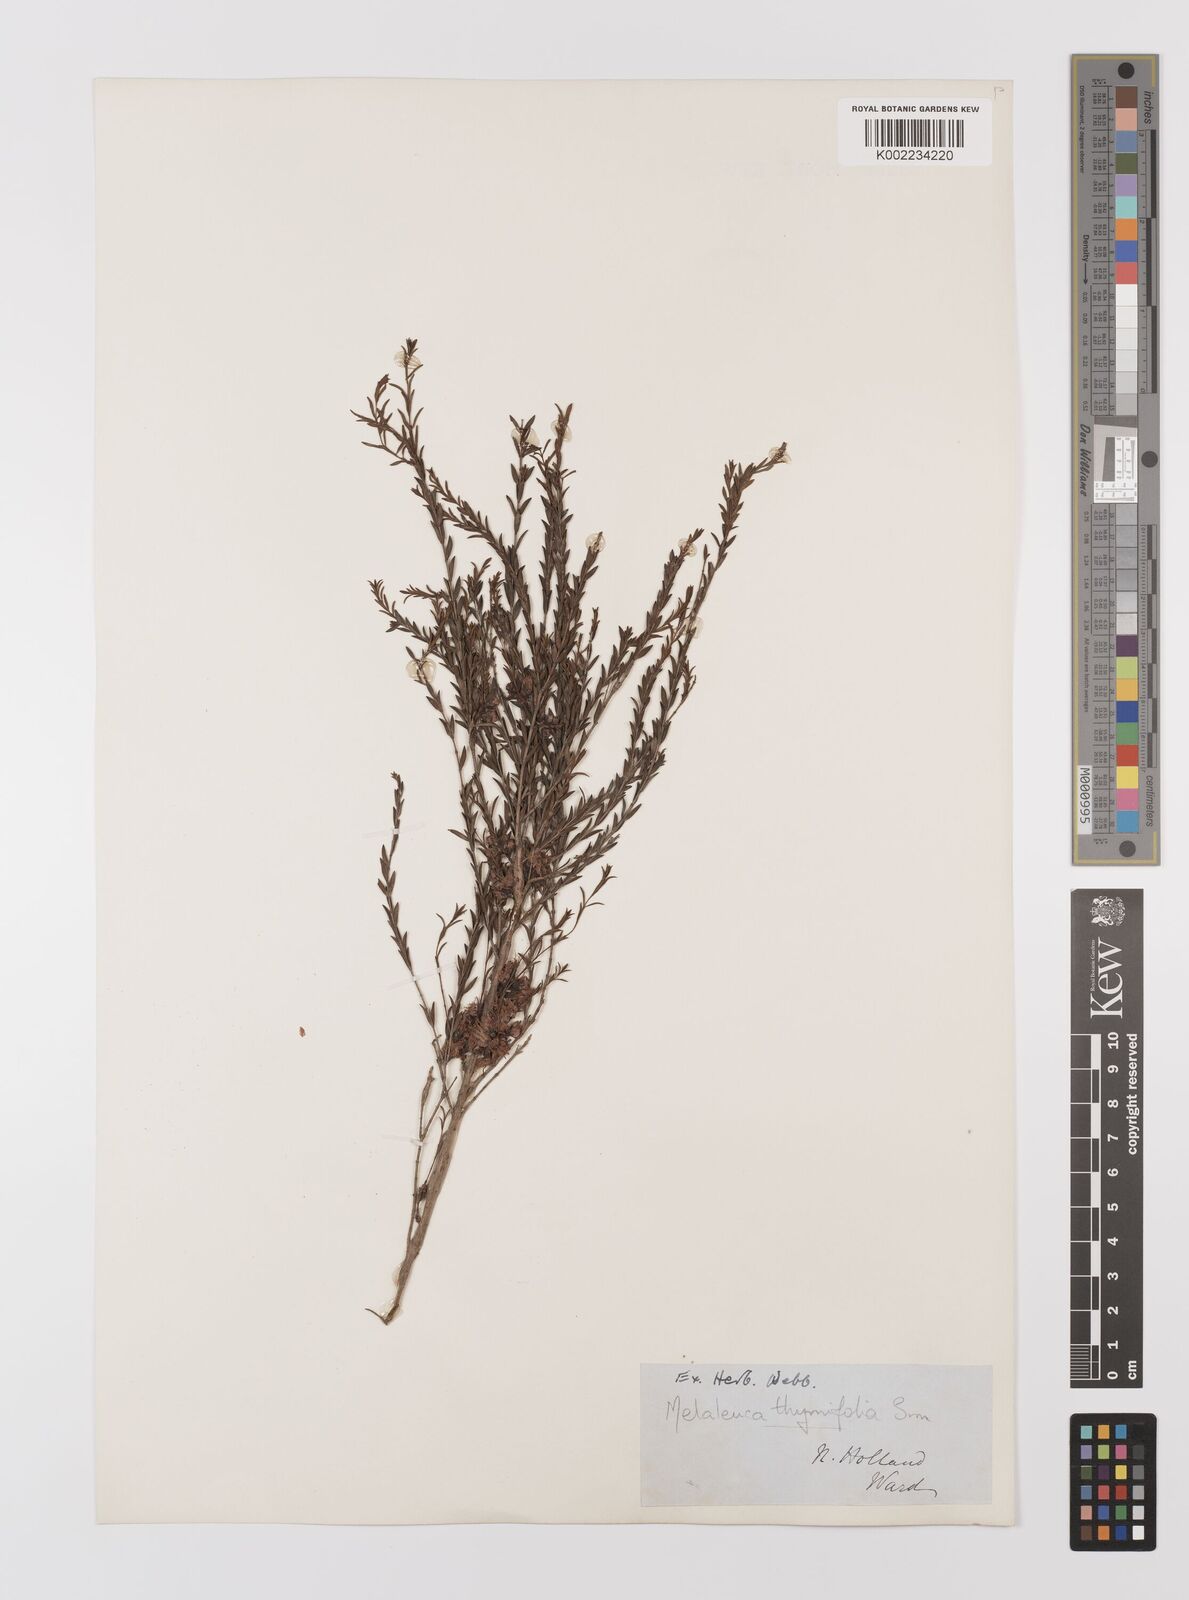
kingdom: Plantae
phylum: Tracheophyta
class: Magnoliopsida
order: Myrtales
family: Myrtaceae
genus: Melaleuca
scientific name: Melaleuca thymifolia
